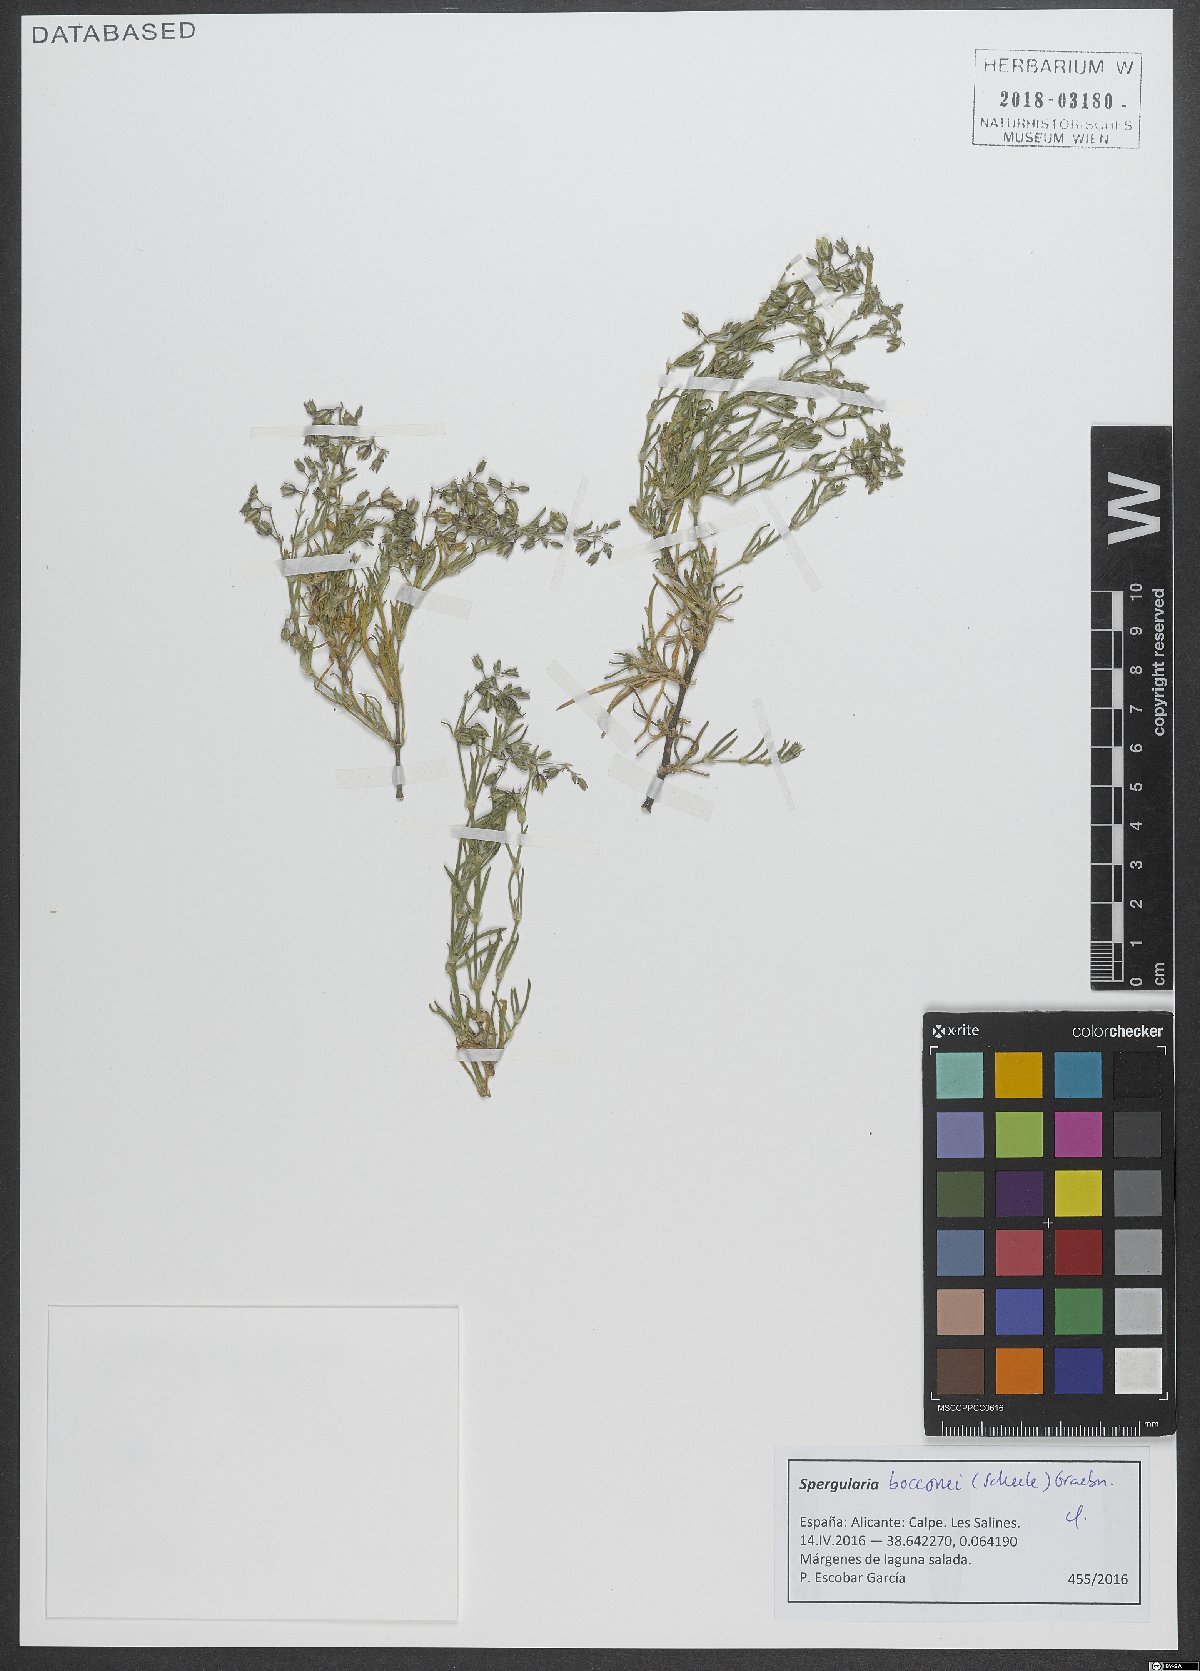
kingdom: Plantae
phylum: Tracheophyta
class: Magnoliopsida
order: Caryophyllales
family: Caryophyllaceae
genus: Spergularia
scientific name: Spergularia bocconei
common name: Greek sea-spurrey
